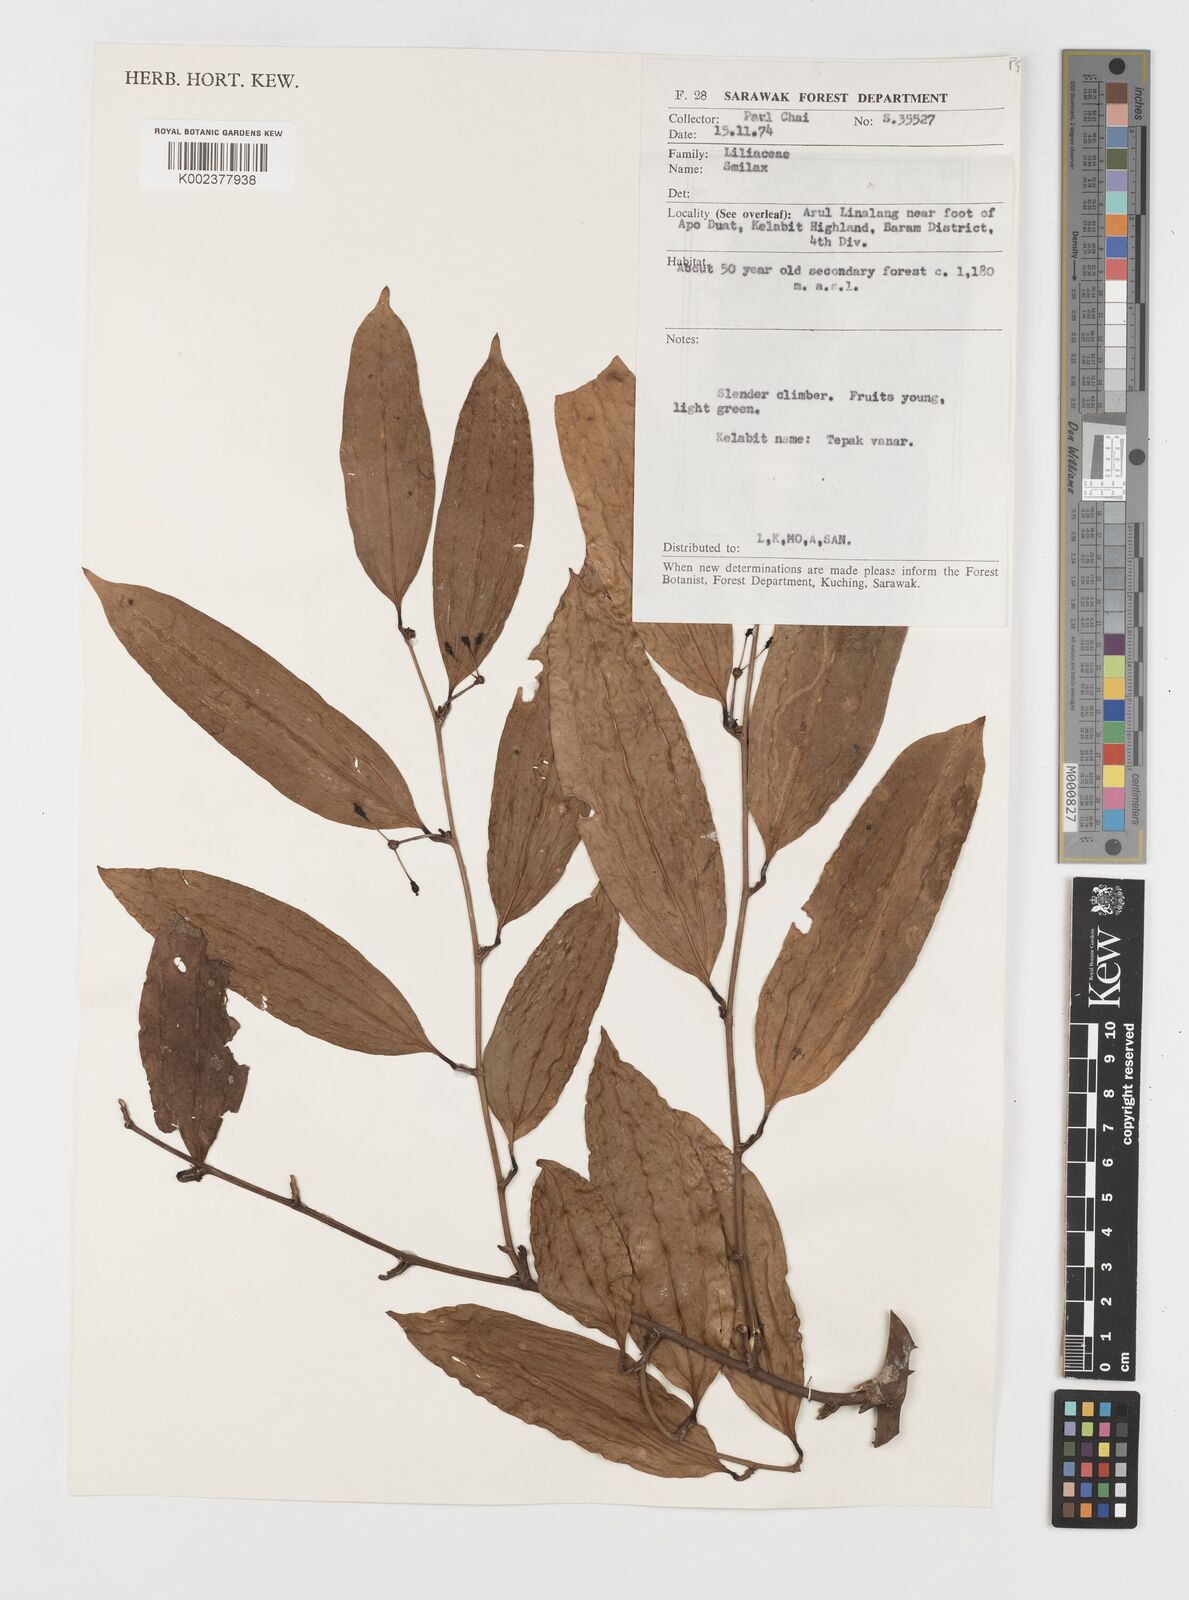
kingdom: Plantae
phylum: Tracheophyta
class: Liliopsida
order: Liliales
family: Smilacaceae
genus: Smilax
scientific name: Smilax
